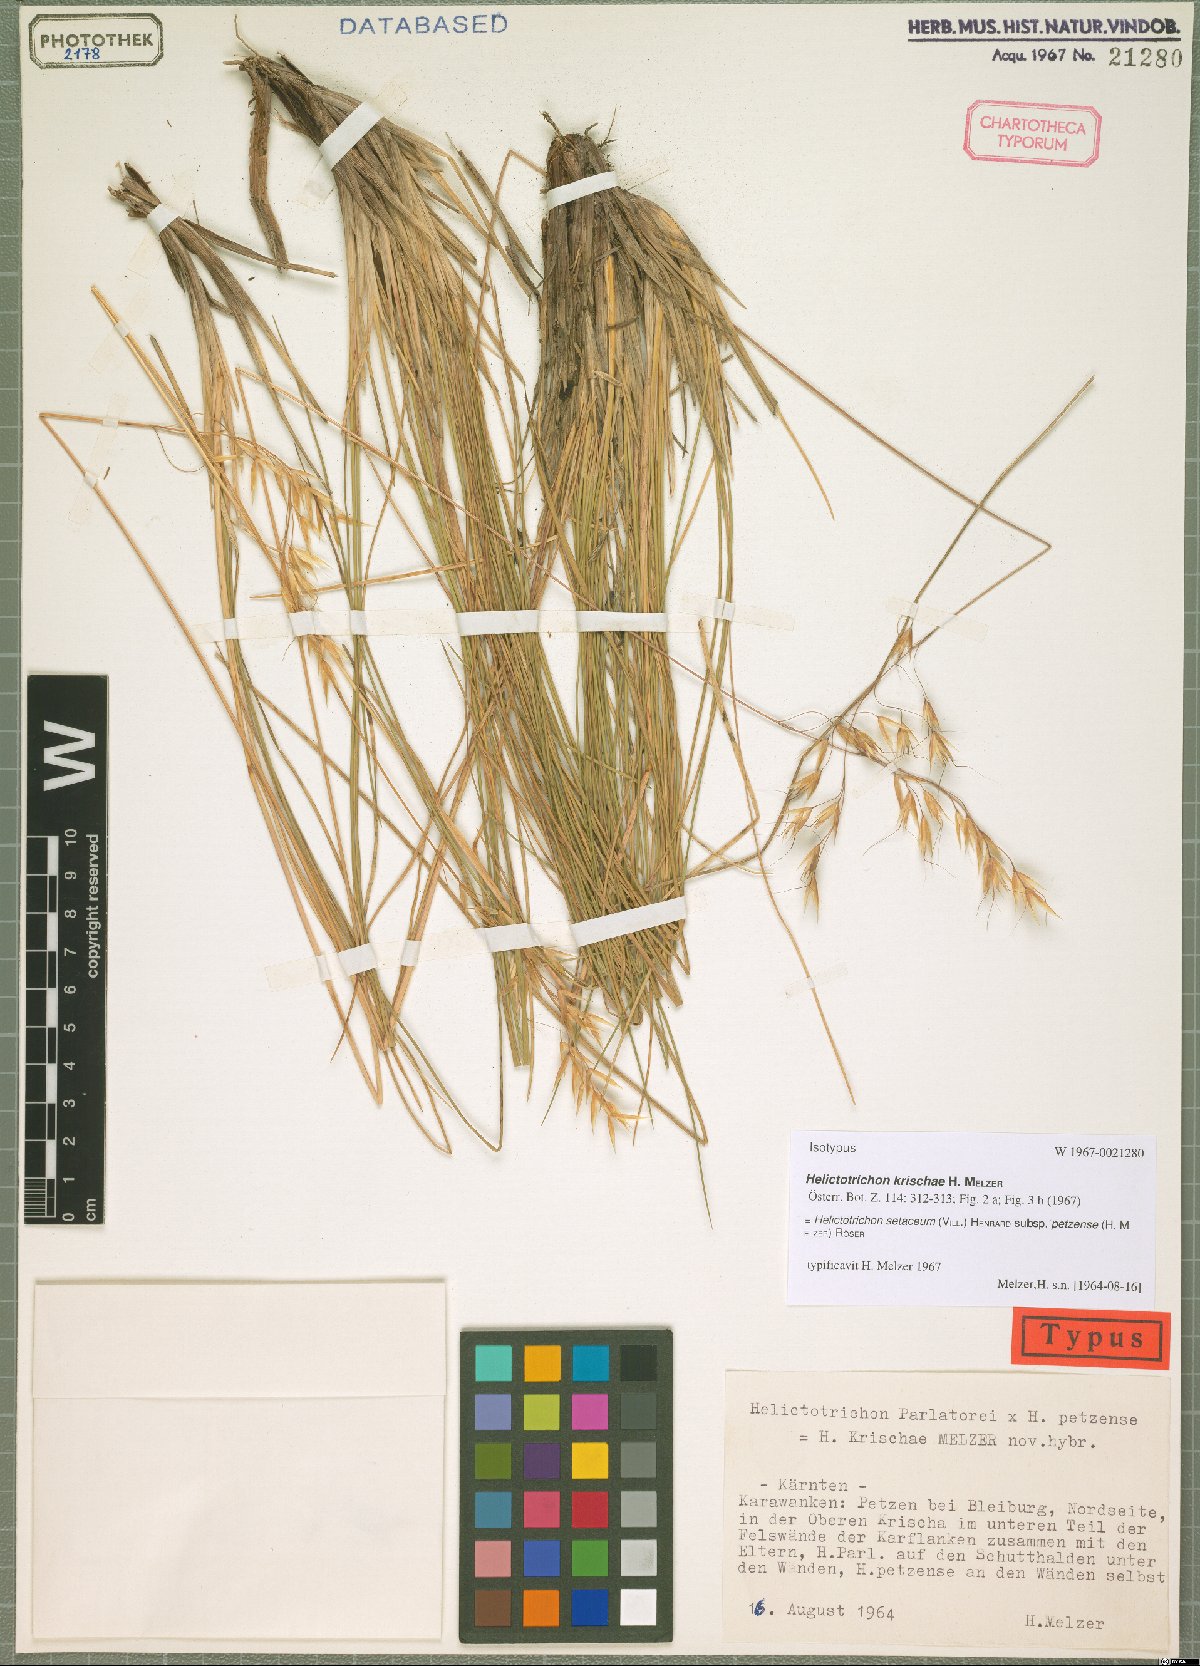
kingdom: Plantae
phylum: Tracheophyta
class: Liliopsida
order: Poales
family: Poaceae
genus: Helictotrichon
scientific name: Helictotrichon petzense
